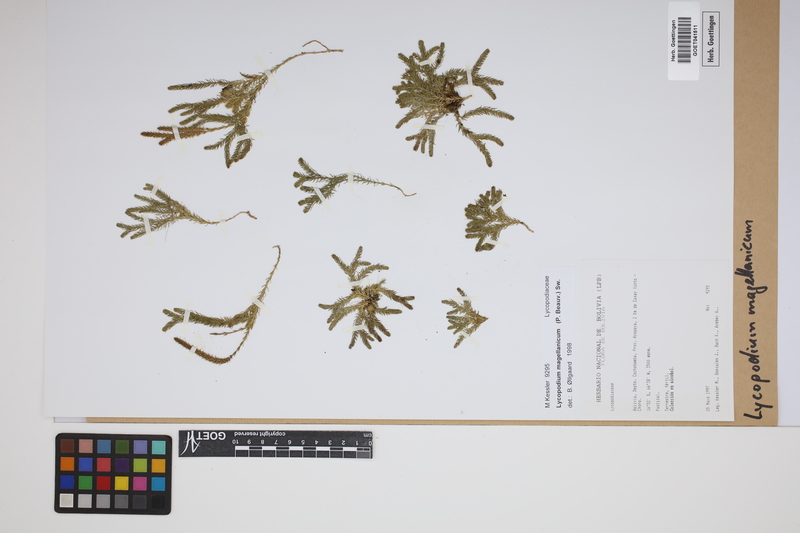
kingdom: Plantae
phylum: Tracheophyta
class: Lycopodiopsida
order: Lycopodiales
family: Lycopodiaceae
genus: Austrolycopodium
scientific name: Austrolycopodium magellanicum
